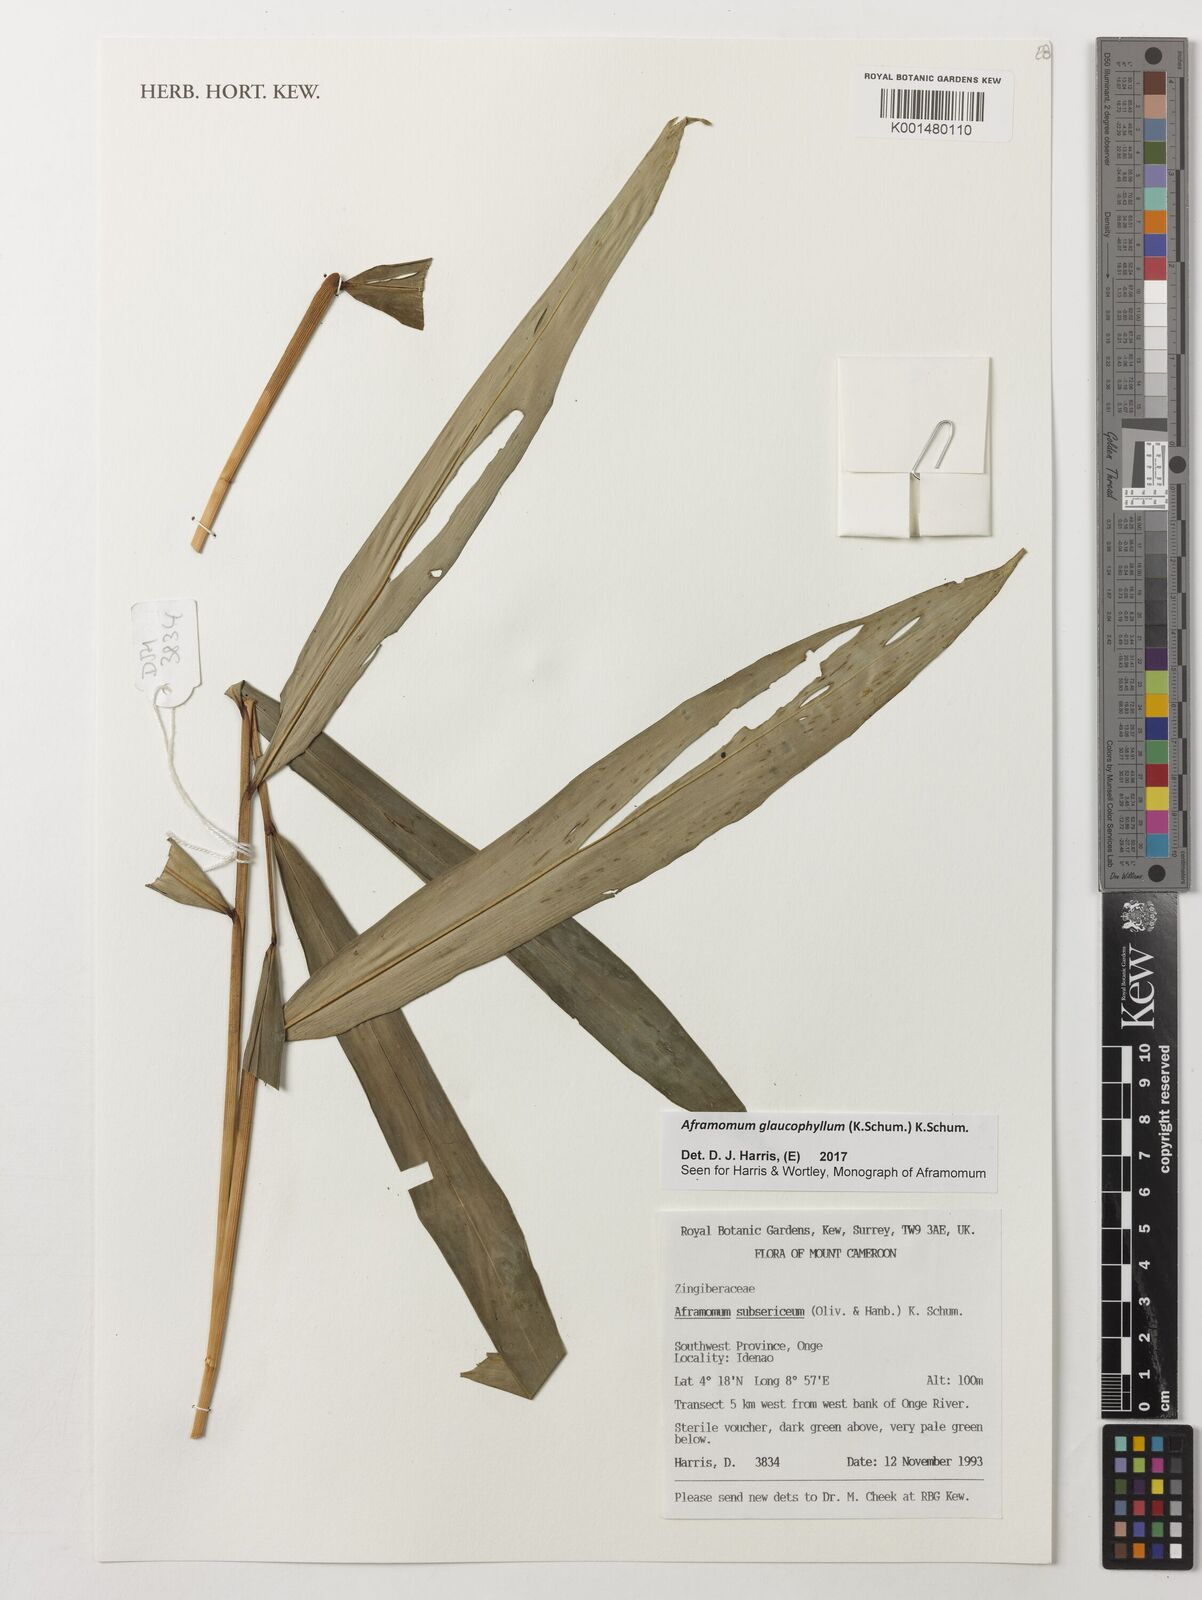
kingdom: Plantae
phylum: Tracheophyta
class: Liliopsida
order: Zingiberales
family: Zingiberaceae
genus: Aframomum
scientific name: Aframomum glaucophyllum
